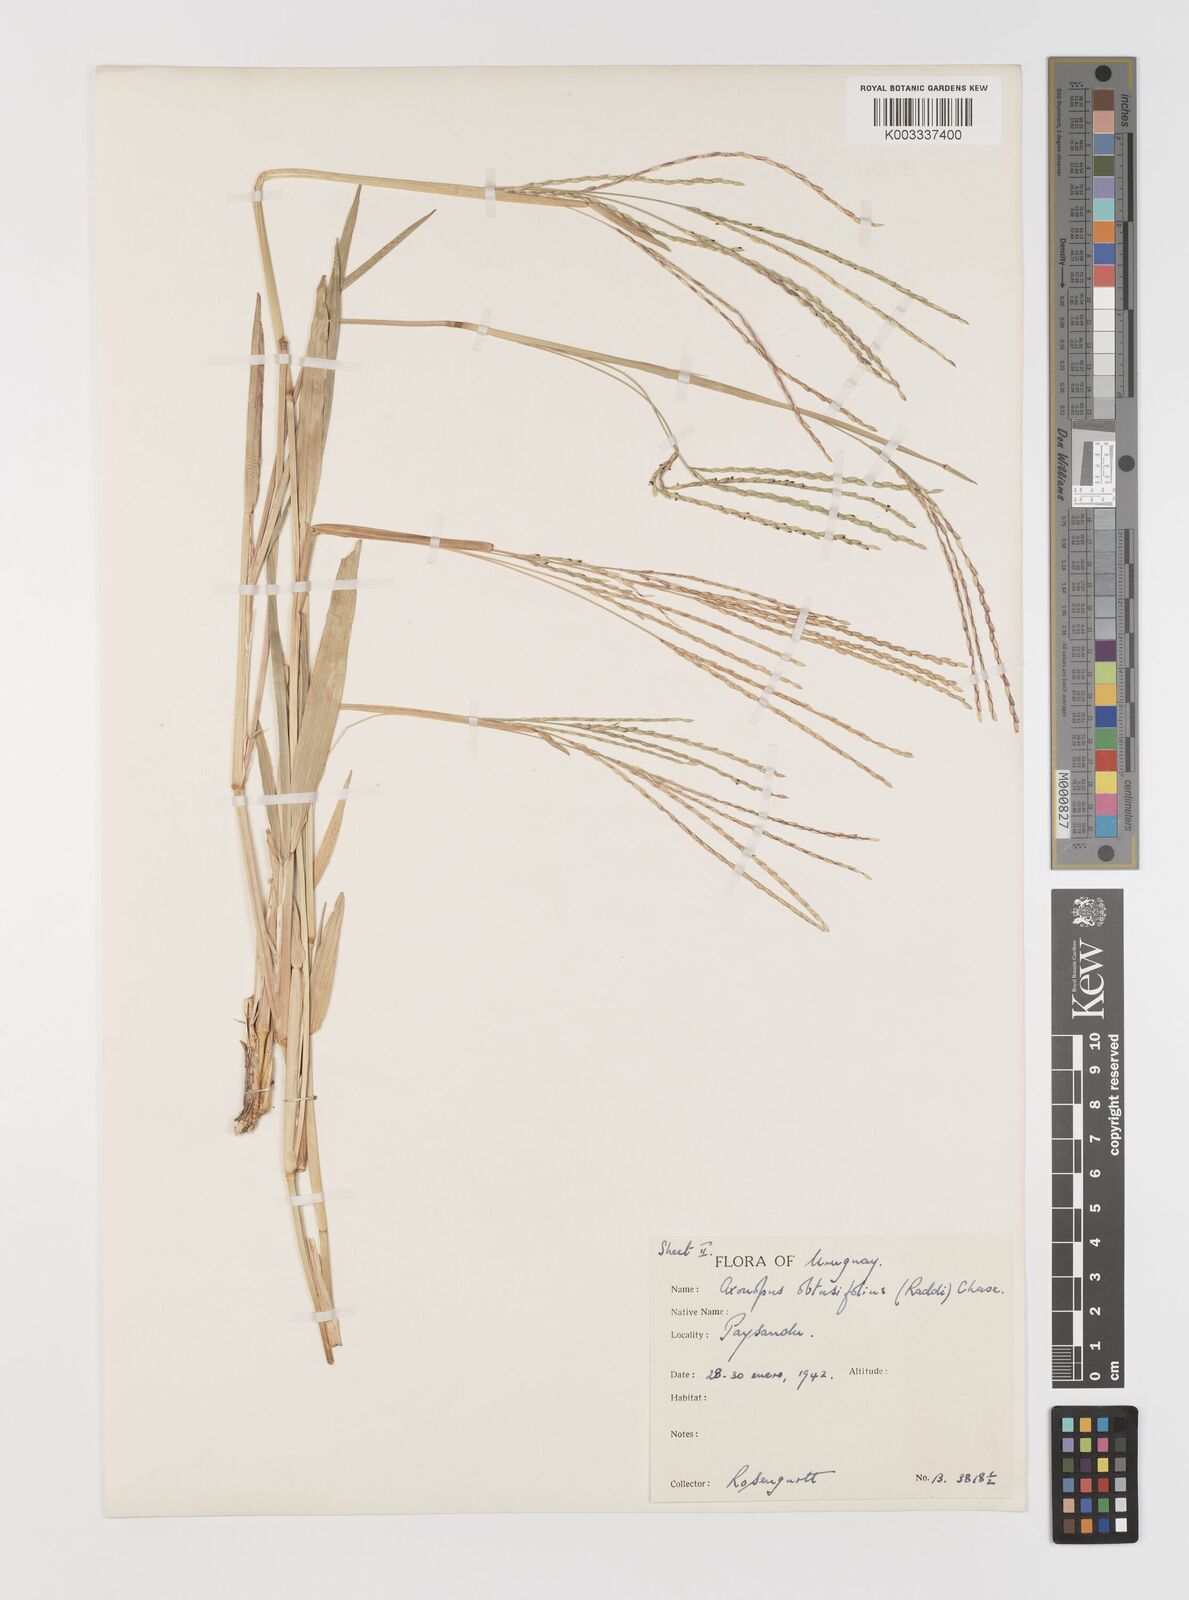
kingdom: Plantae
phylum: Tracheophyta
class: Liliopsida
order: Poales
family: Poaceae
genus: Axonopus
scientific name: Axonopus furcatus
